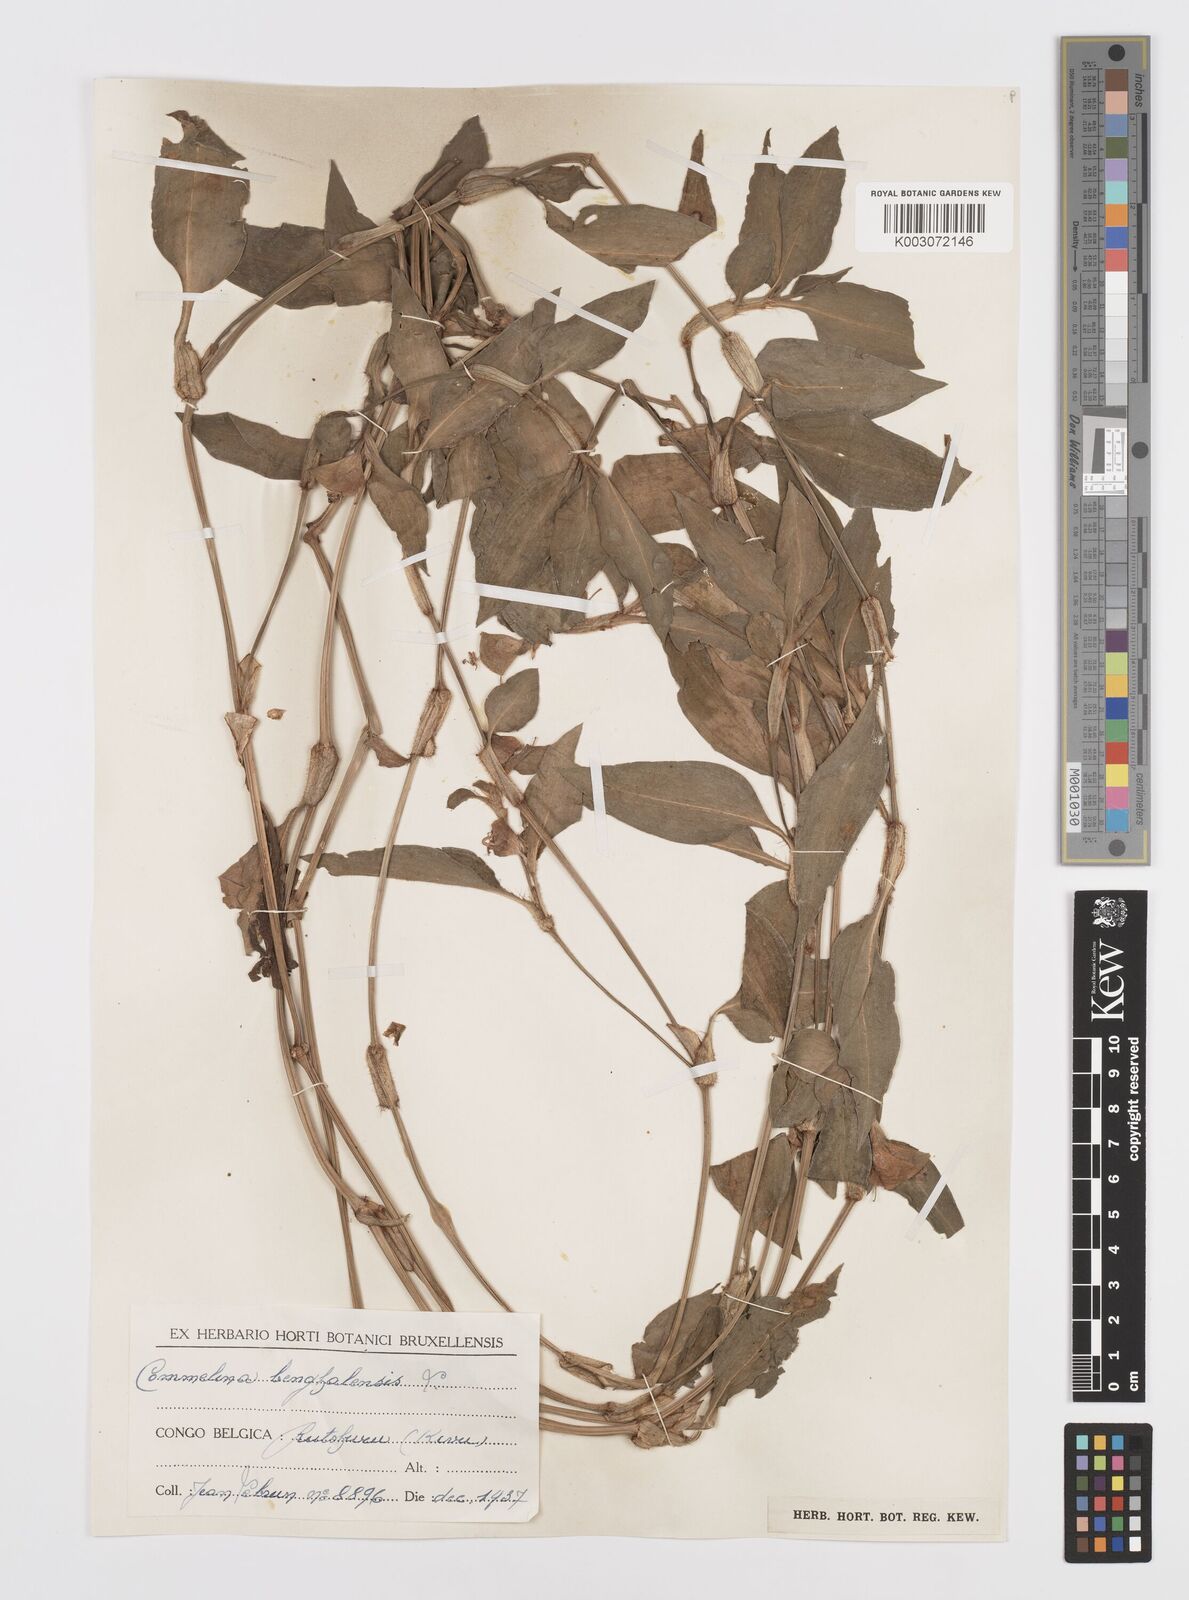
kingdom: Plantae
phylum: Tracheophyta
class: Liliopsida
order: Commelinales
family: Commelinaceae
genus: Commelina
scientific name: Commelina benghalensis
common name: Jio
